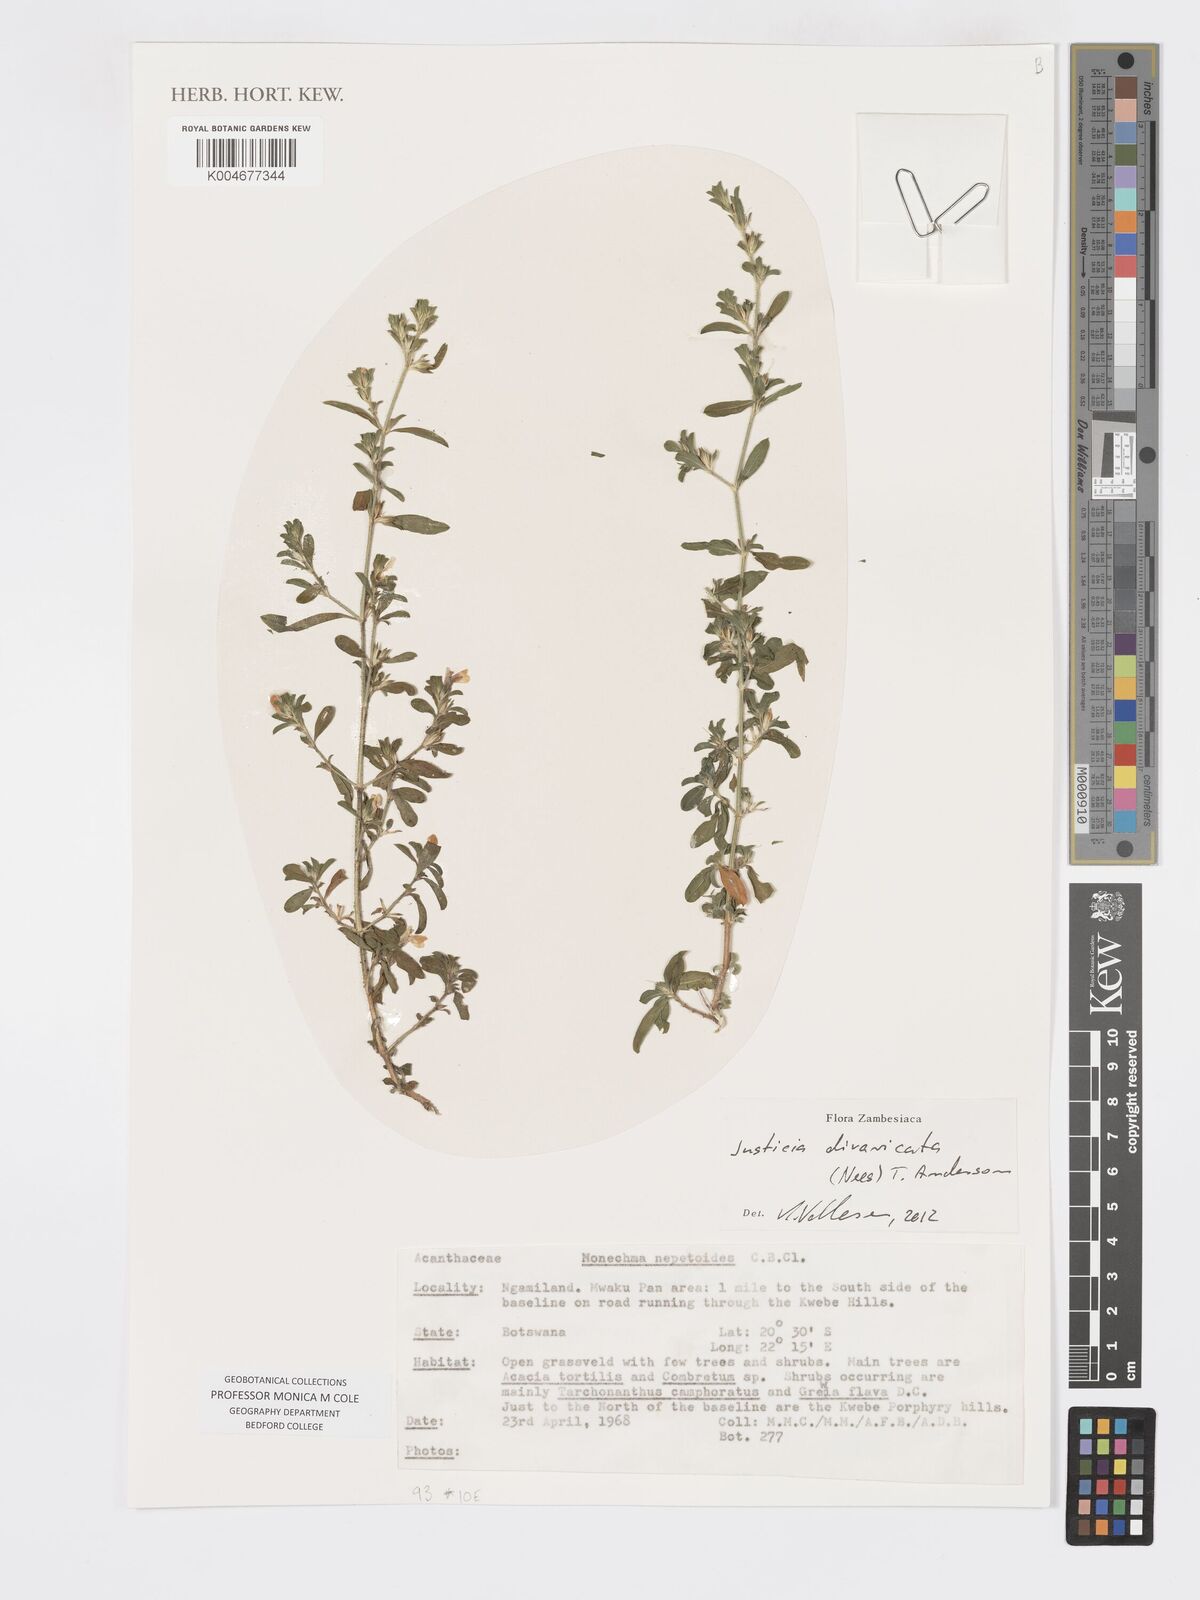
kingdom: Plantae
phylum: Tracheophyta
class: Magnoliopsida
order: Lamiales
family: Acanthaceae
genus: Pogonospermum
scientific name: Pogonospermum
